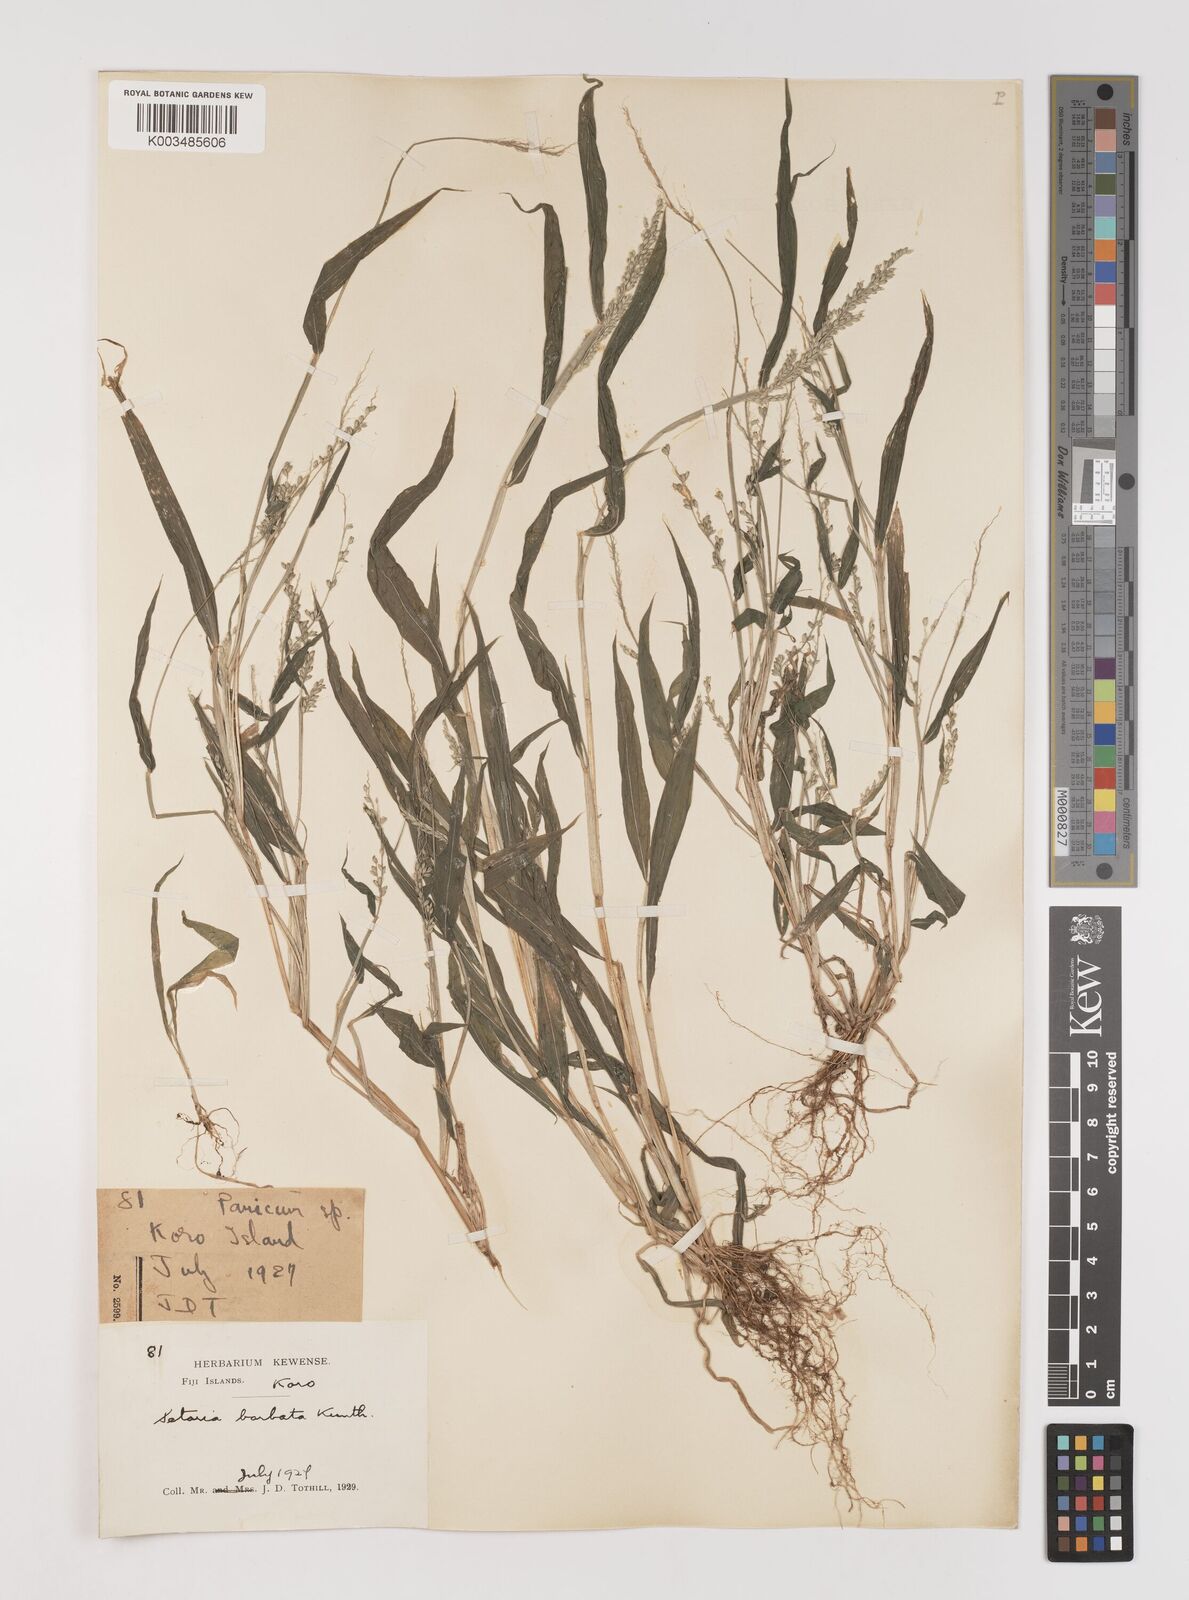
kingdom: Plantae
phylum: Tracheophyta
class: Liliopsida
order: Poales
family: Poaceae
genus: Setaria
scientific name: Setaria barbata
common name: East indian bristlegrass
